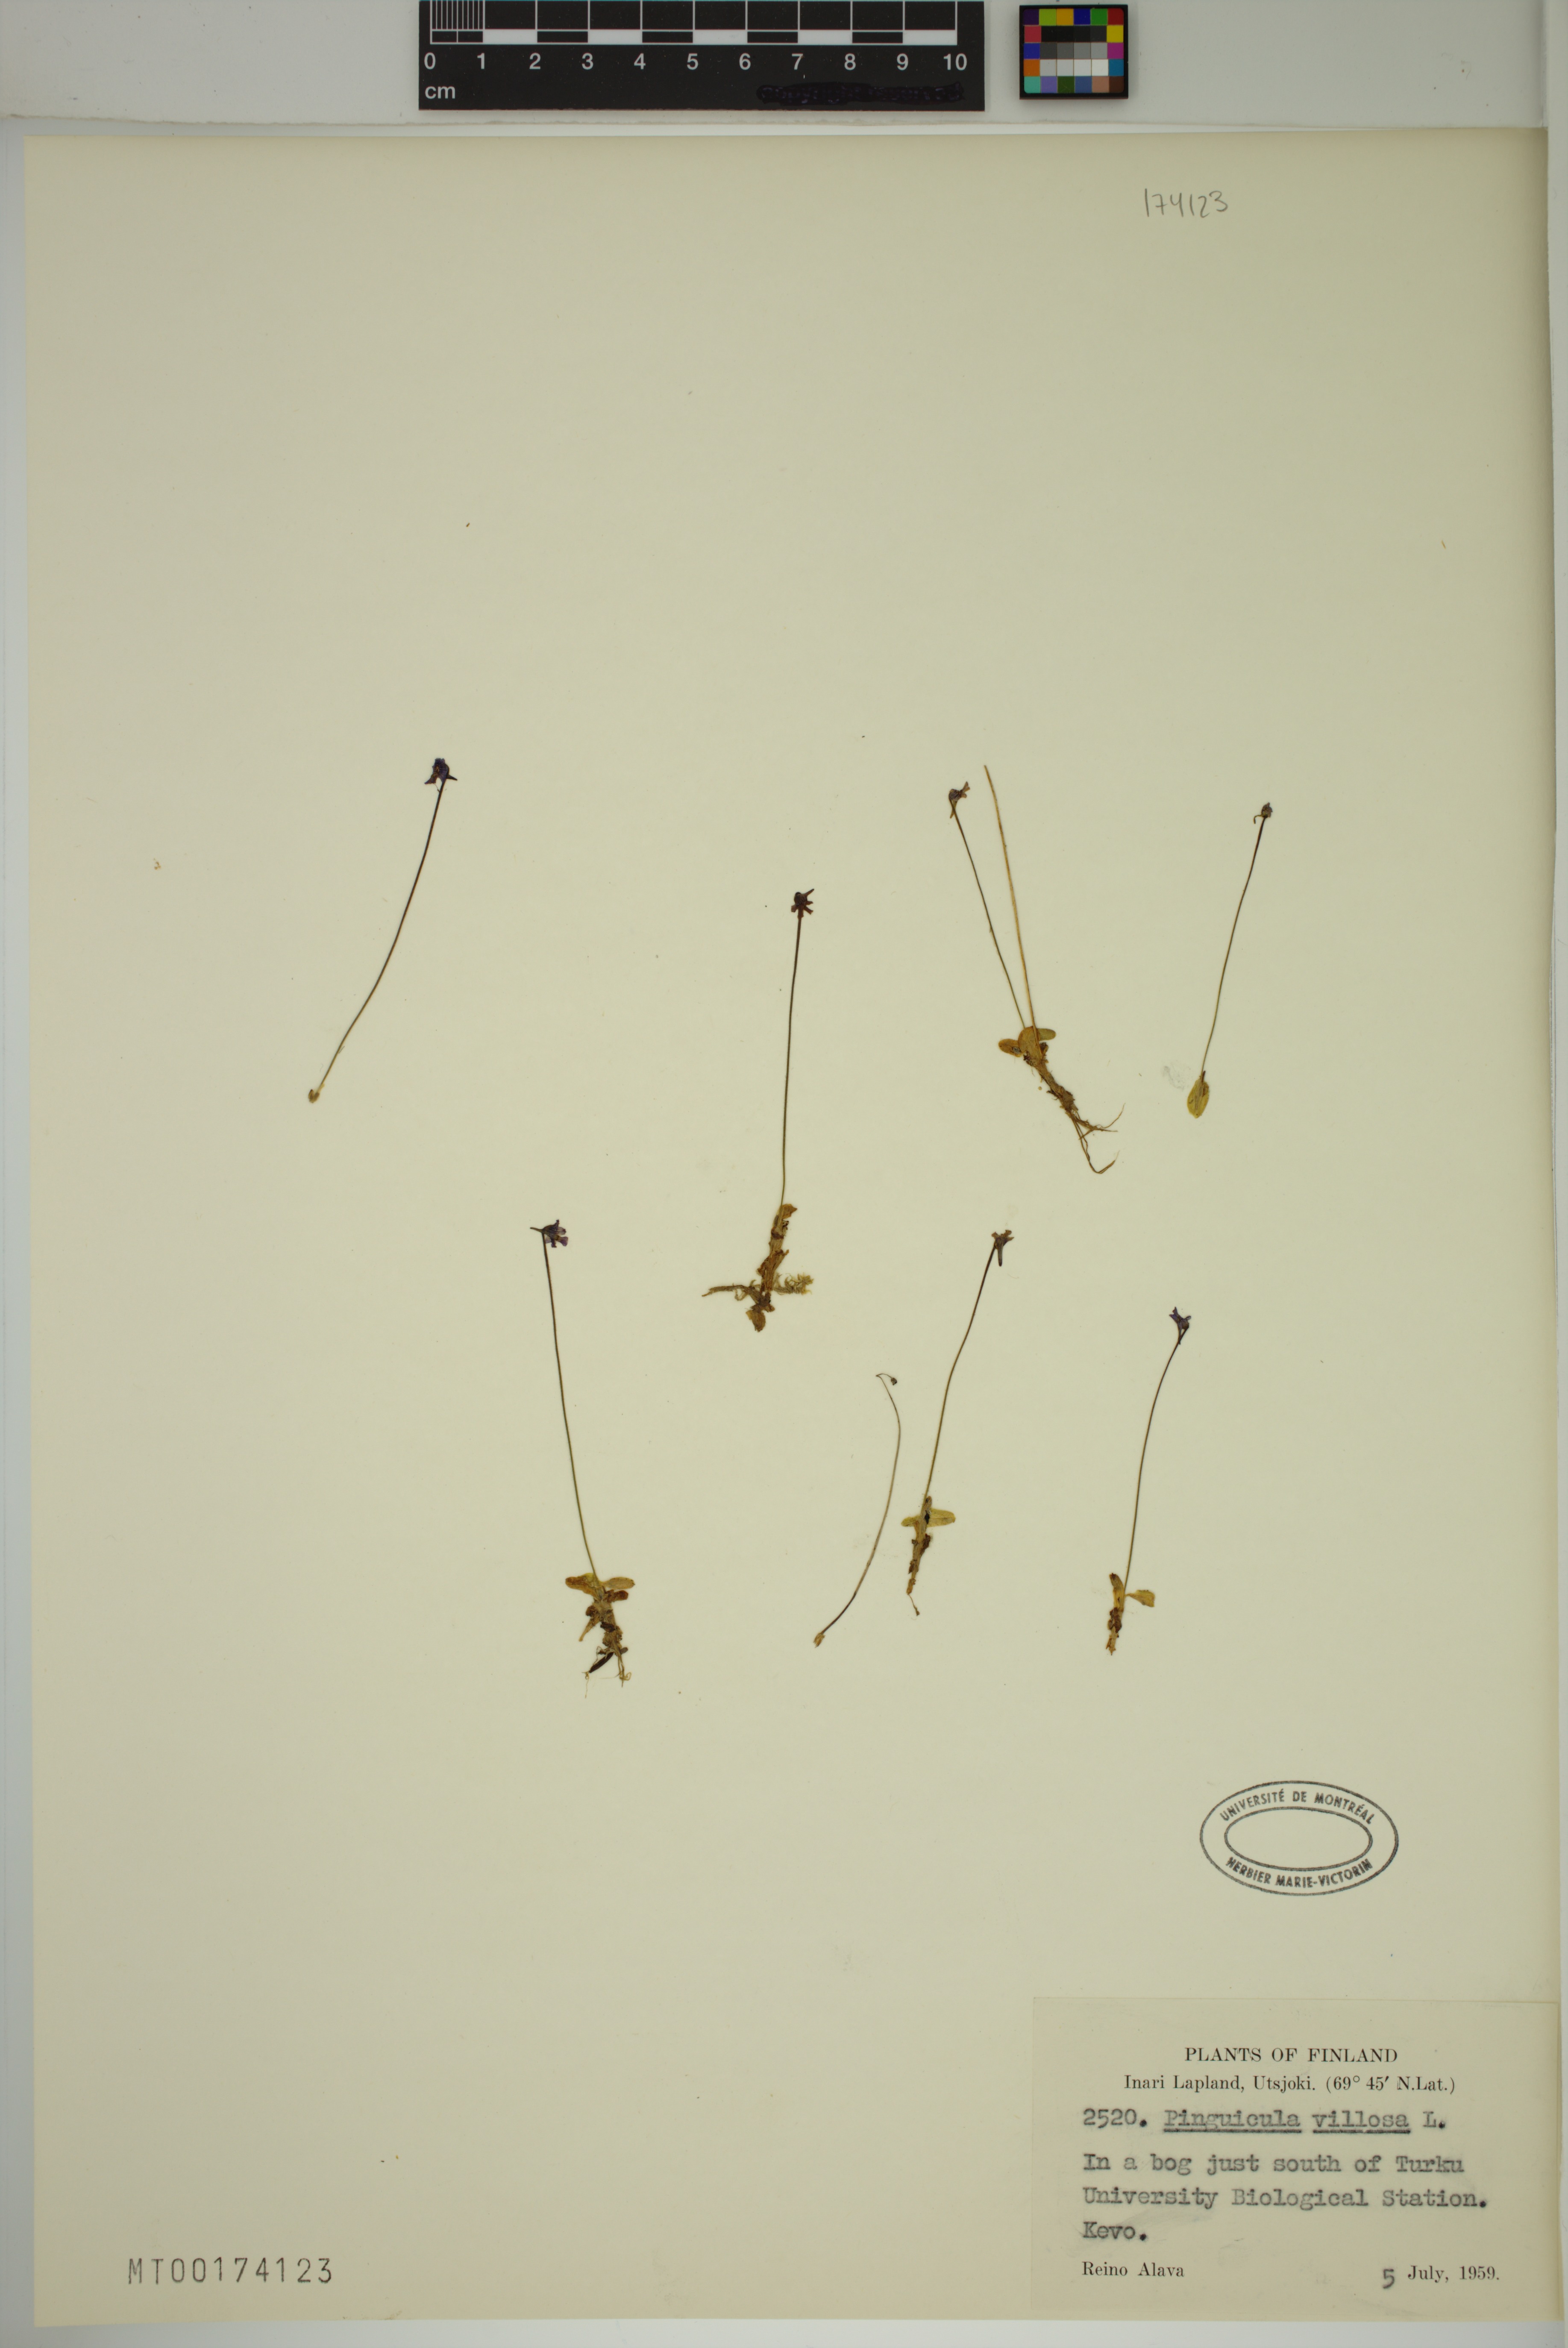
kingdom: Plantae
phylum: Tracheophyta
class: Magnoliopsida
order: Lamiales
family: Lentibulariaceae
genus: Pinguicula
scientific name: Pinguicula villosa
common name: Hairy butterwort
